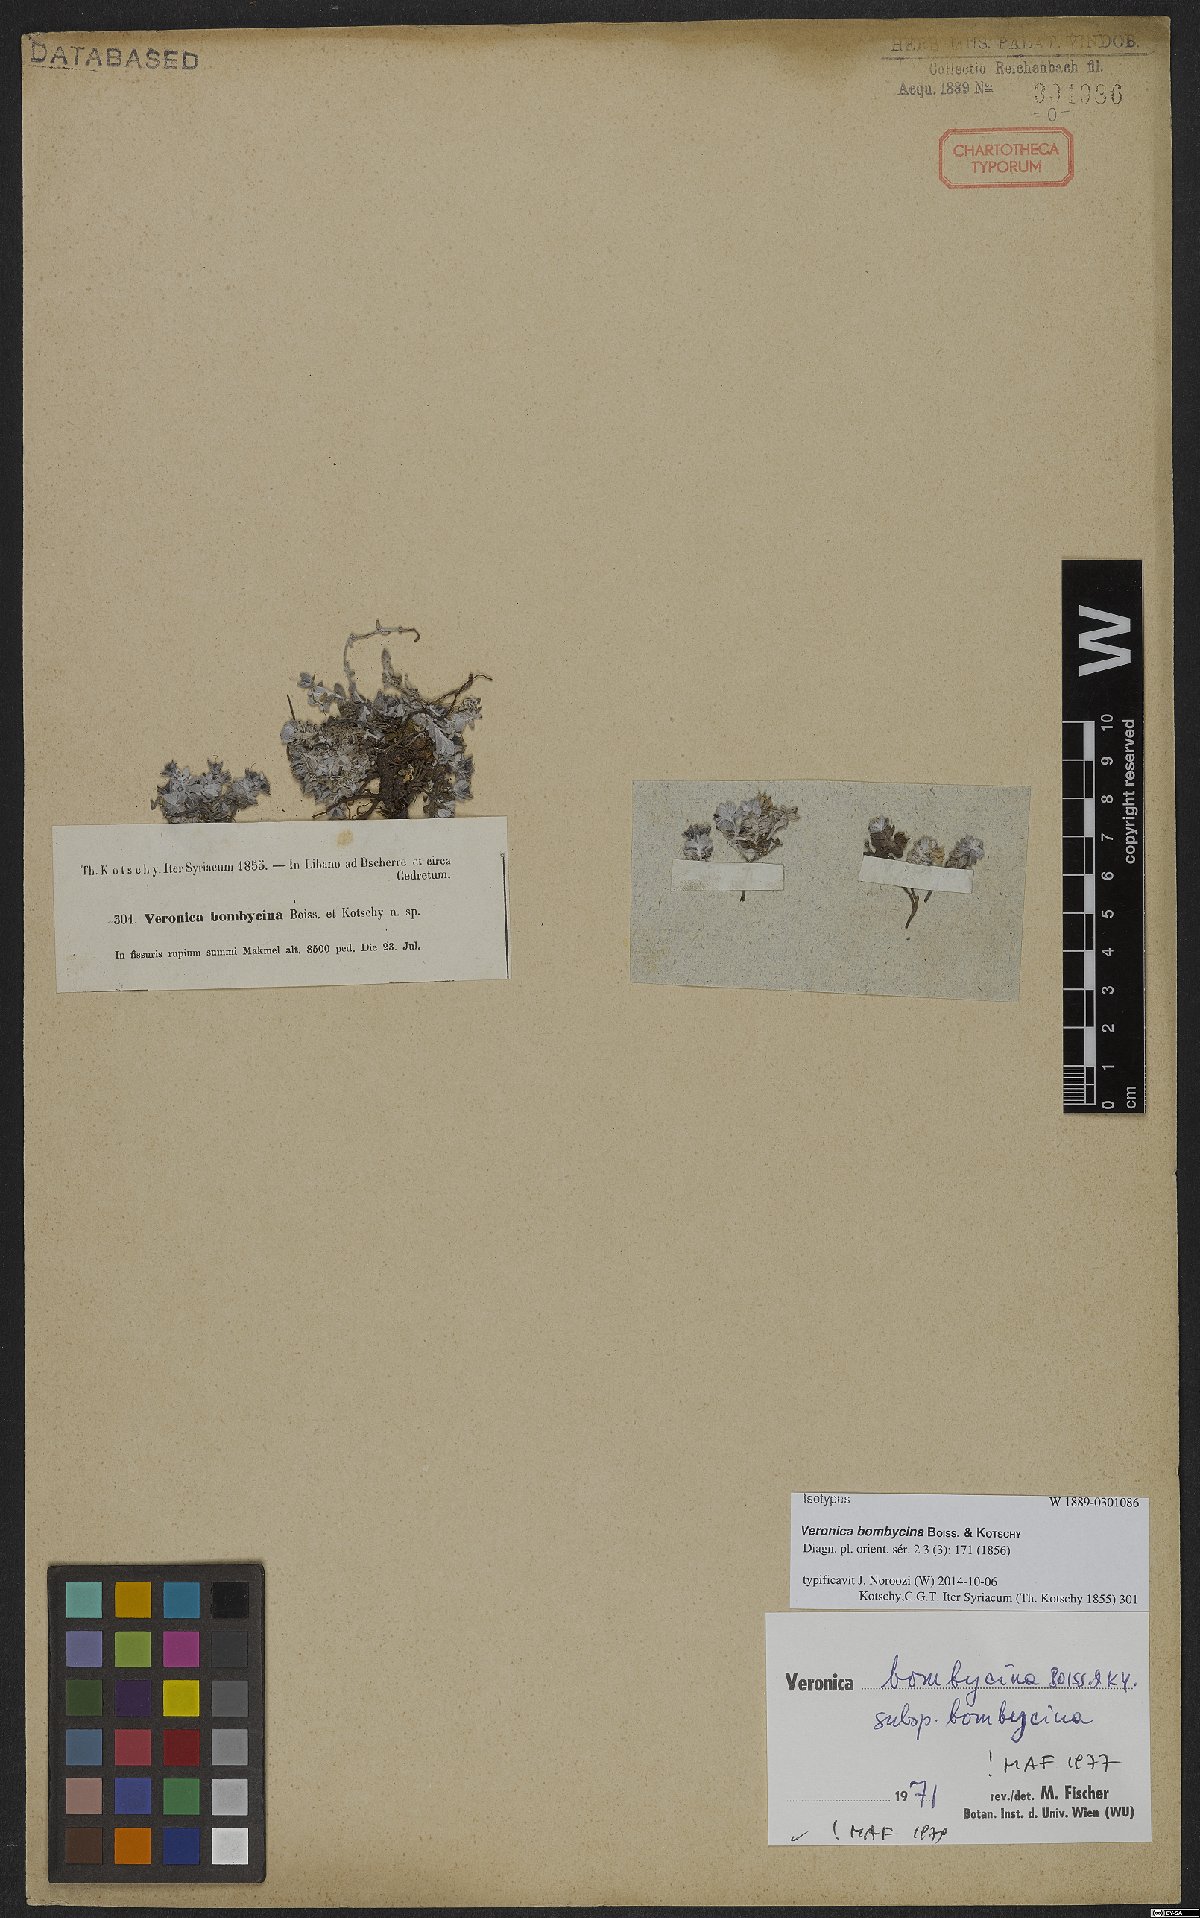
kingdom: Plantae
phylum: Tracheophyta
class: Magnoliopsida
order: Lamiales
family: Plantaginaceae
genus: Veronica
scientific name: Veronica bombycina
